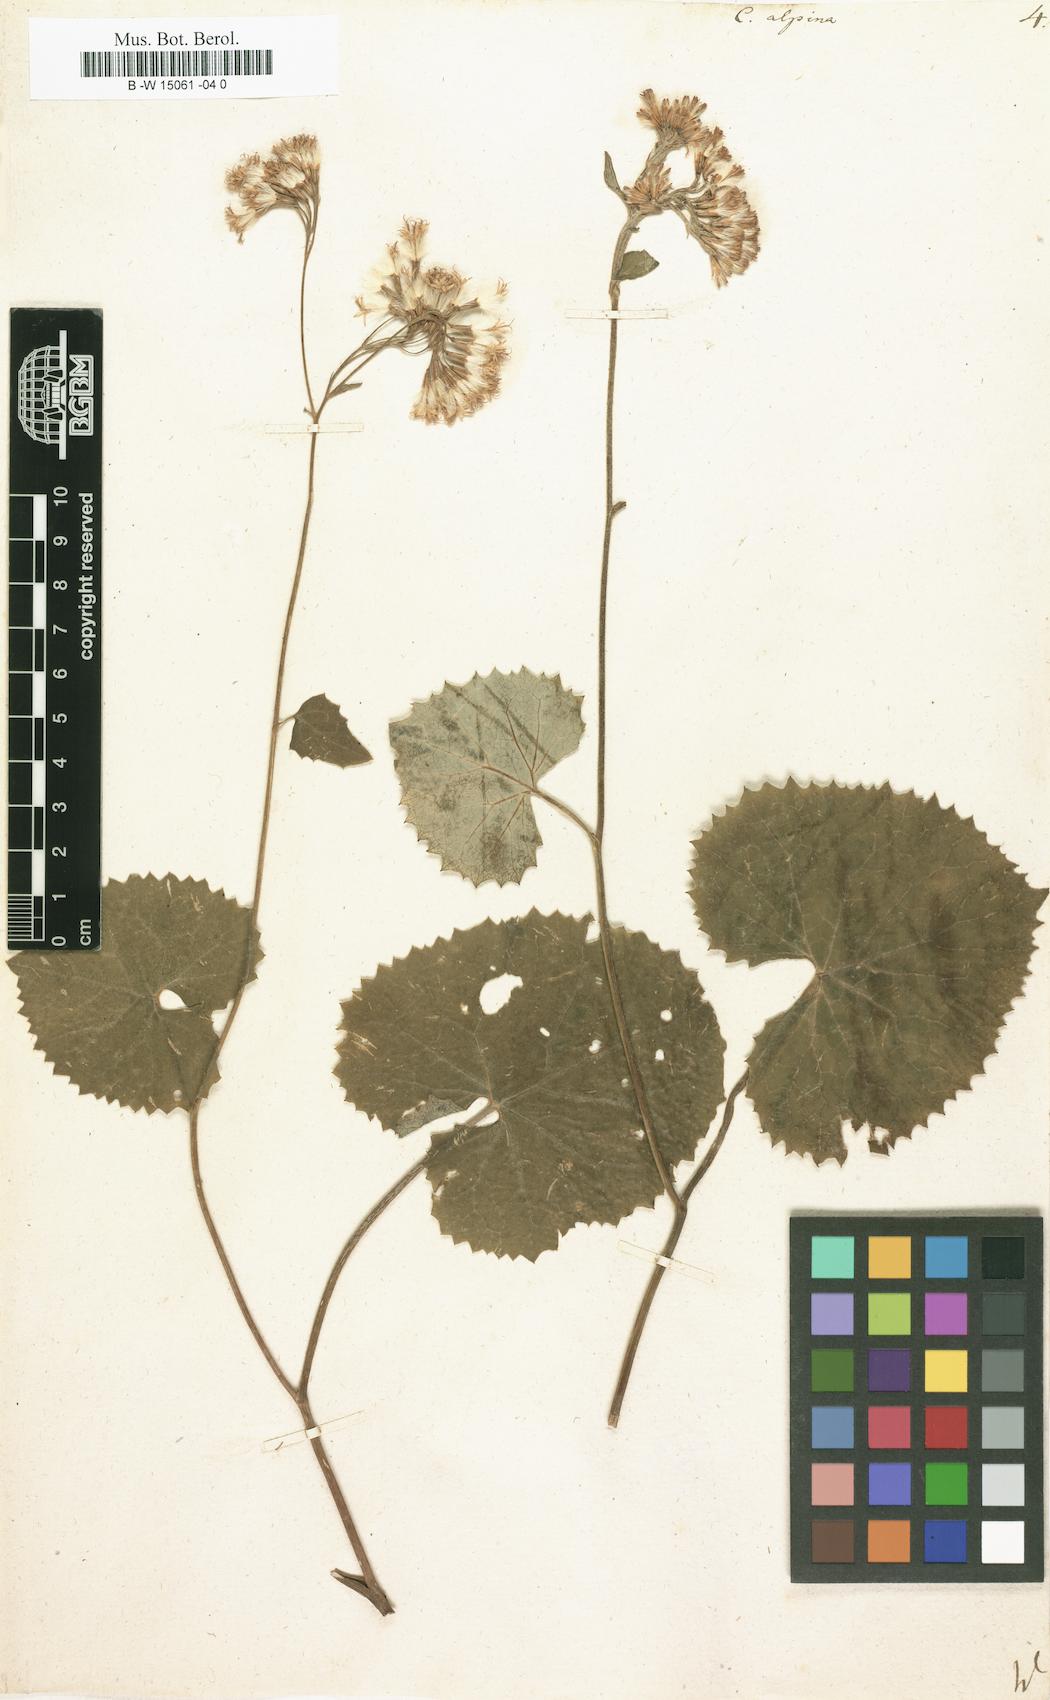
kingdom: Plantae
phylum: Tracheophyta
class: Magnoliopsida
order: Asterales
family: Asteraceae
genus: Adenostyles
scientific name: Adenostyles
